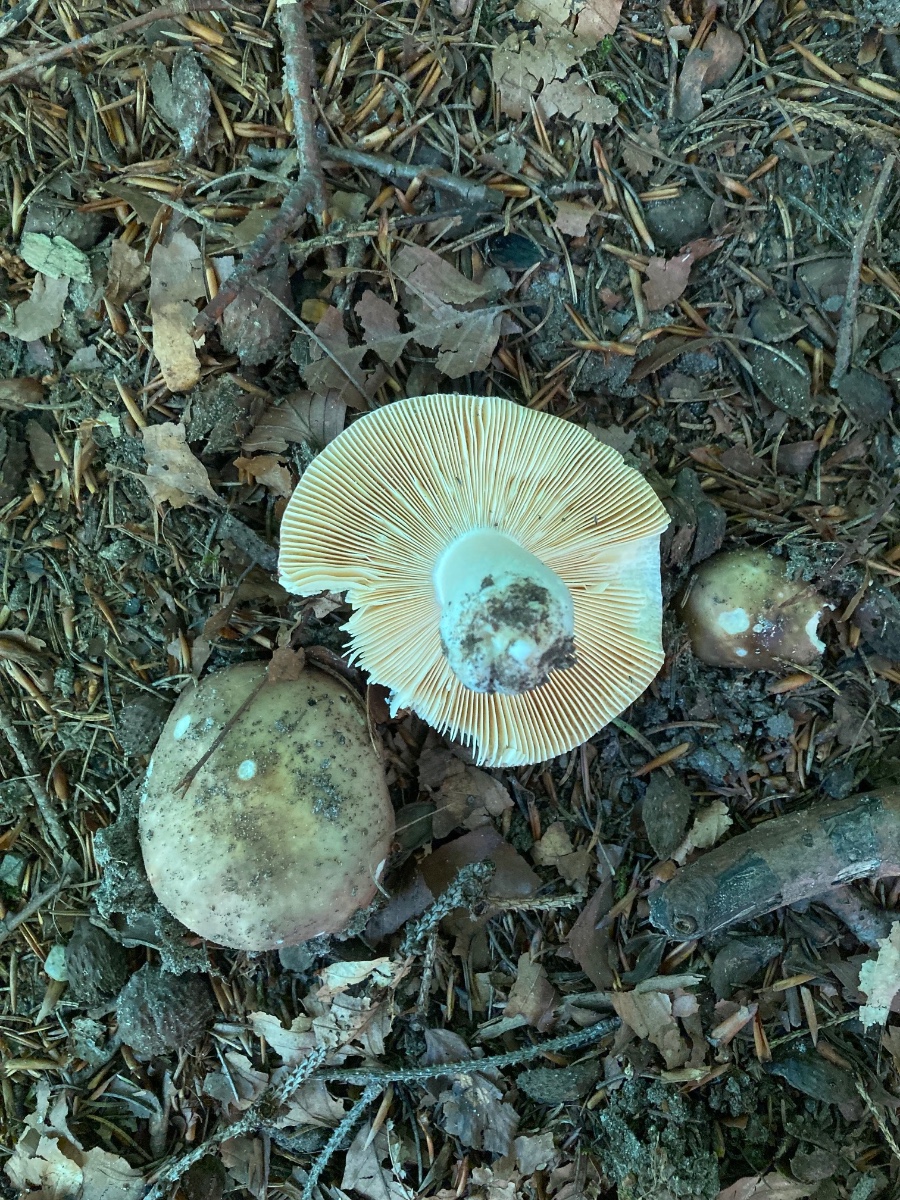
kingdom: Fungi
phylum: Basidiomycota
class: Agaricomycetes
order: Russulales
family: Russulaceae
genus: Russula
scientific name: Russula romellii
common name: romells skørhat
